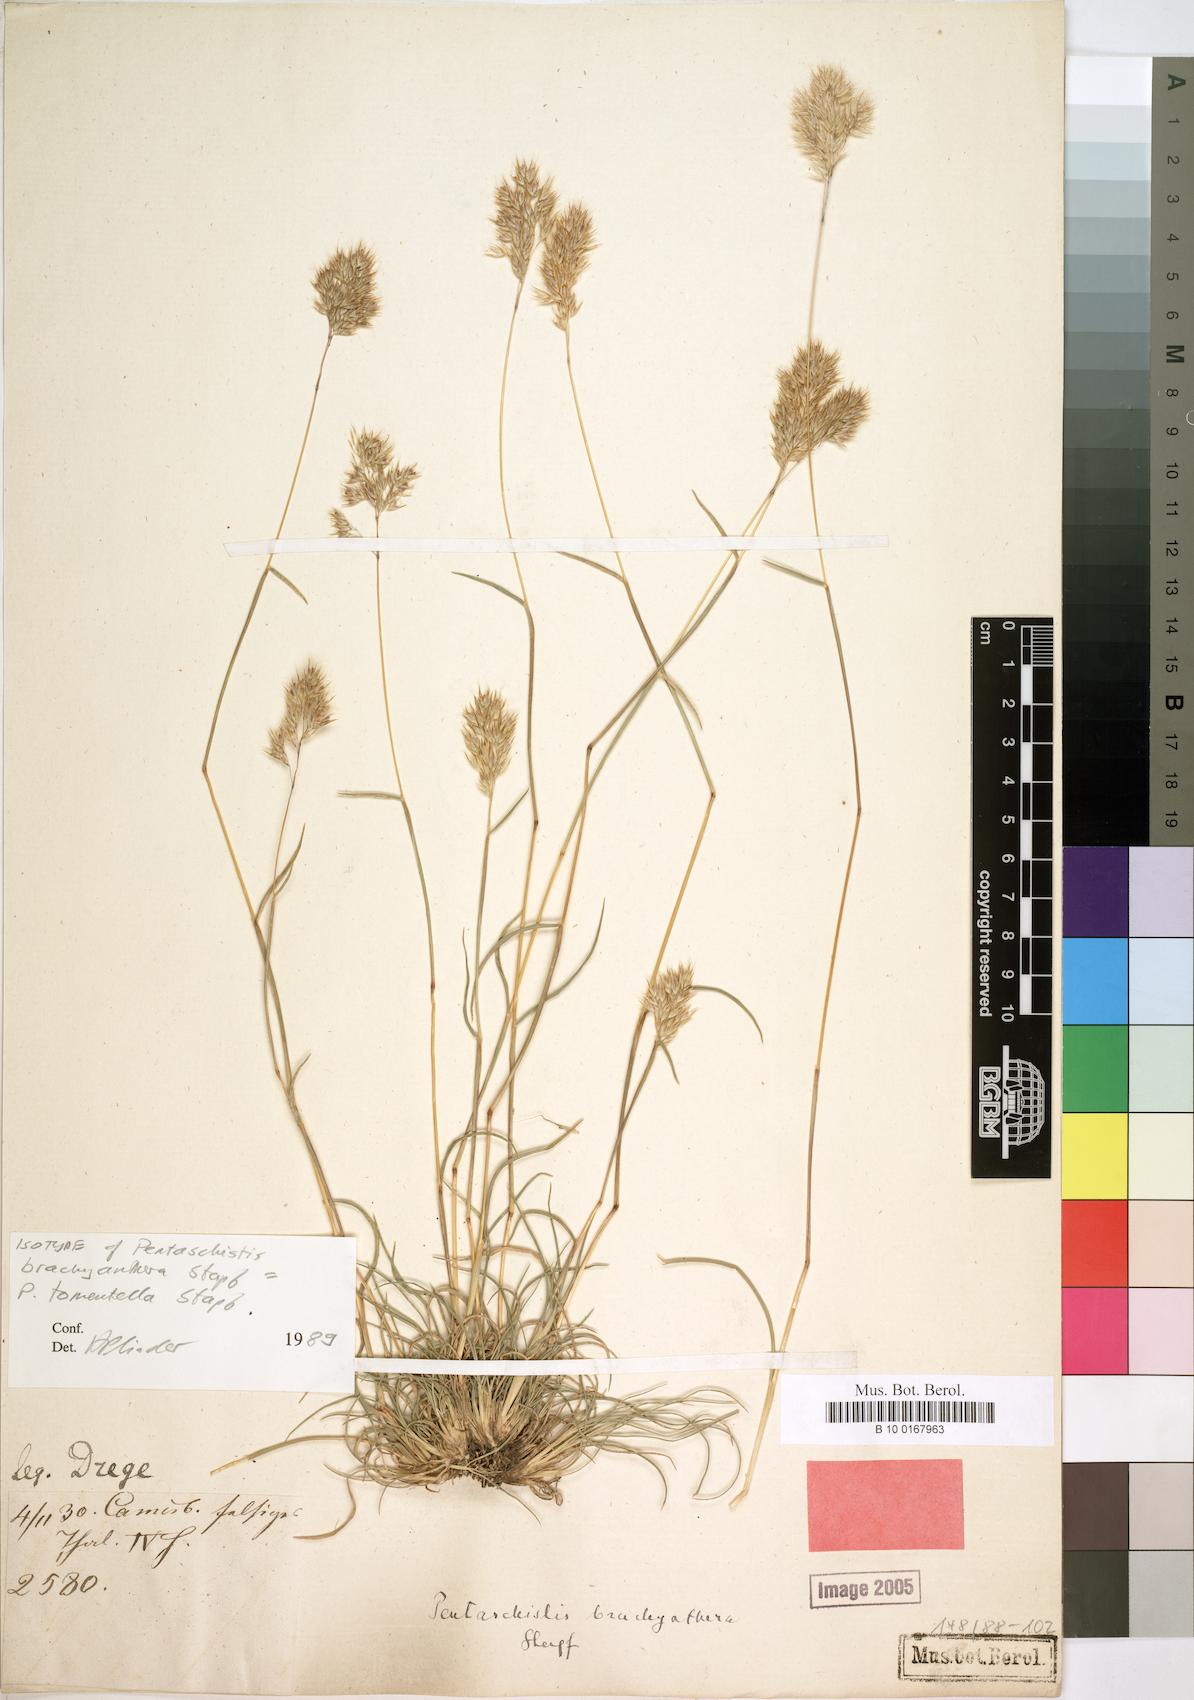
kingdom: Plantae
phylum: Tracheophyta
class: Liliopsida
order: Poales
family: Poaceae
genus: Pentameris
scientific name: Pentameris tomentella
